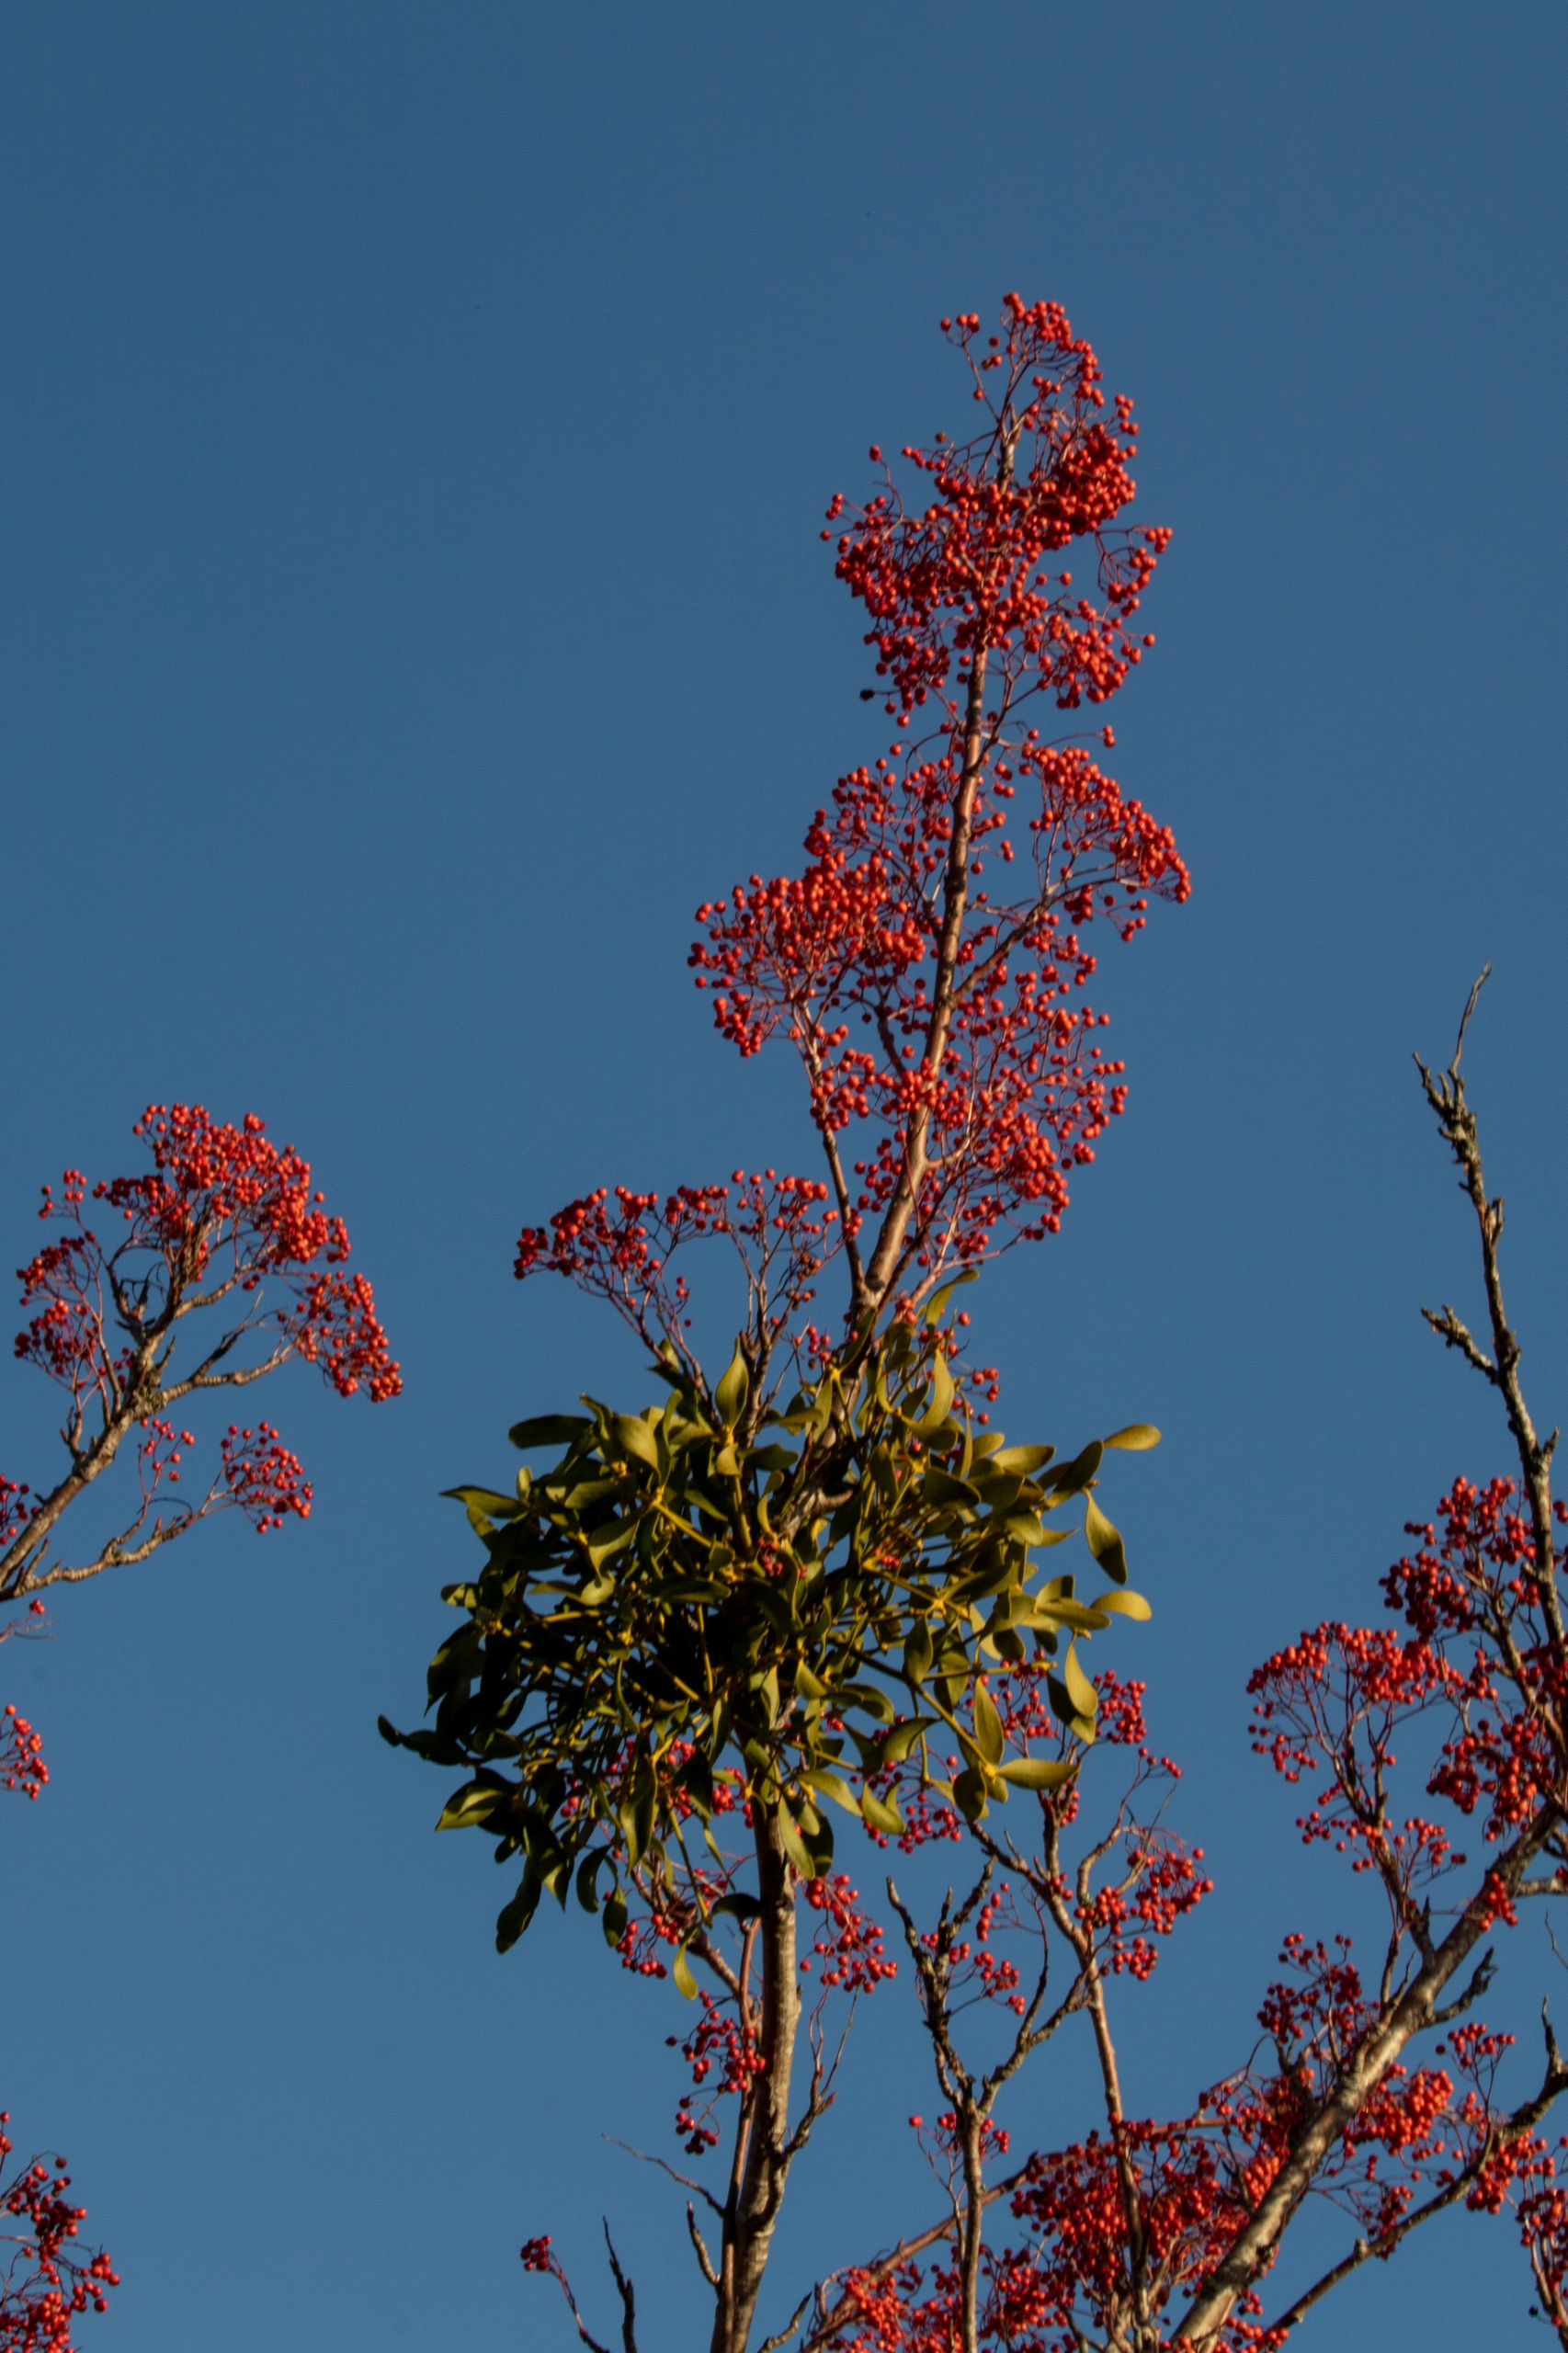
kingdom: Plantae
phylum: Tracheophyta
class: Magnoliopsida
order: Santalales
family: Viscaceae
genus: Viscum
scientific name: Viscum album
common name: Mistelten
